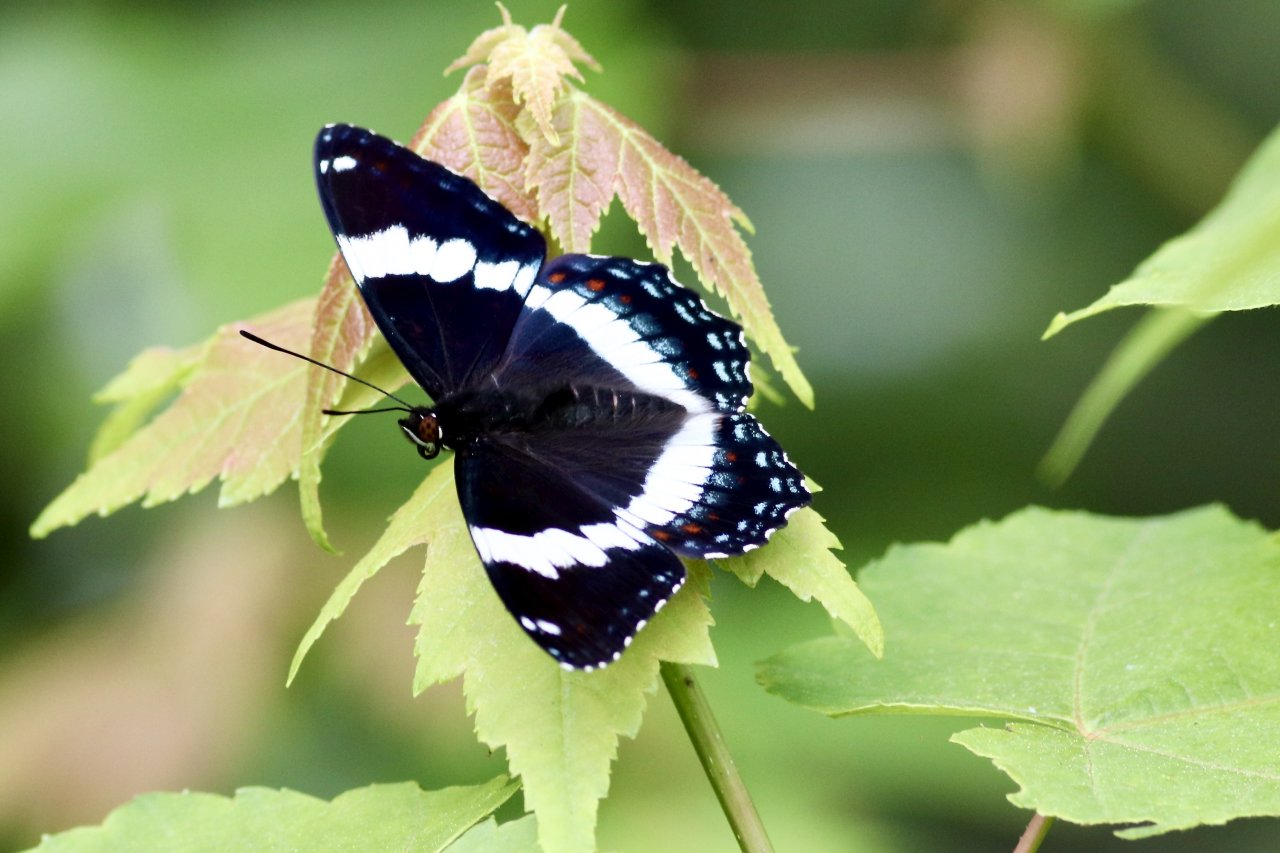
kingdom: Animalia
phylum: Arthropoda
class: Insecta
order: Lepidoptera
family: Nymphalidae
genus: Limenitis
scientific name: Limenitis arthemis
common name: Red-spotted Admiral
